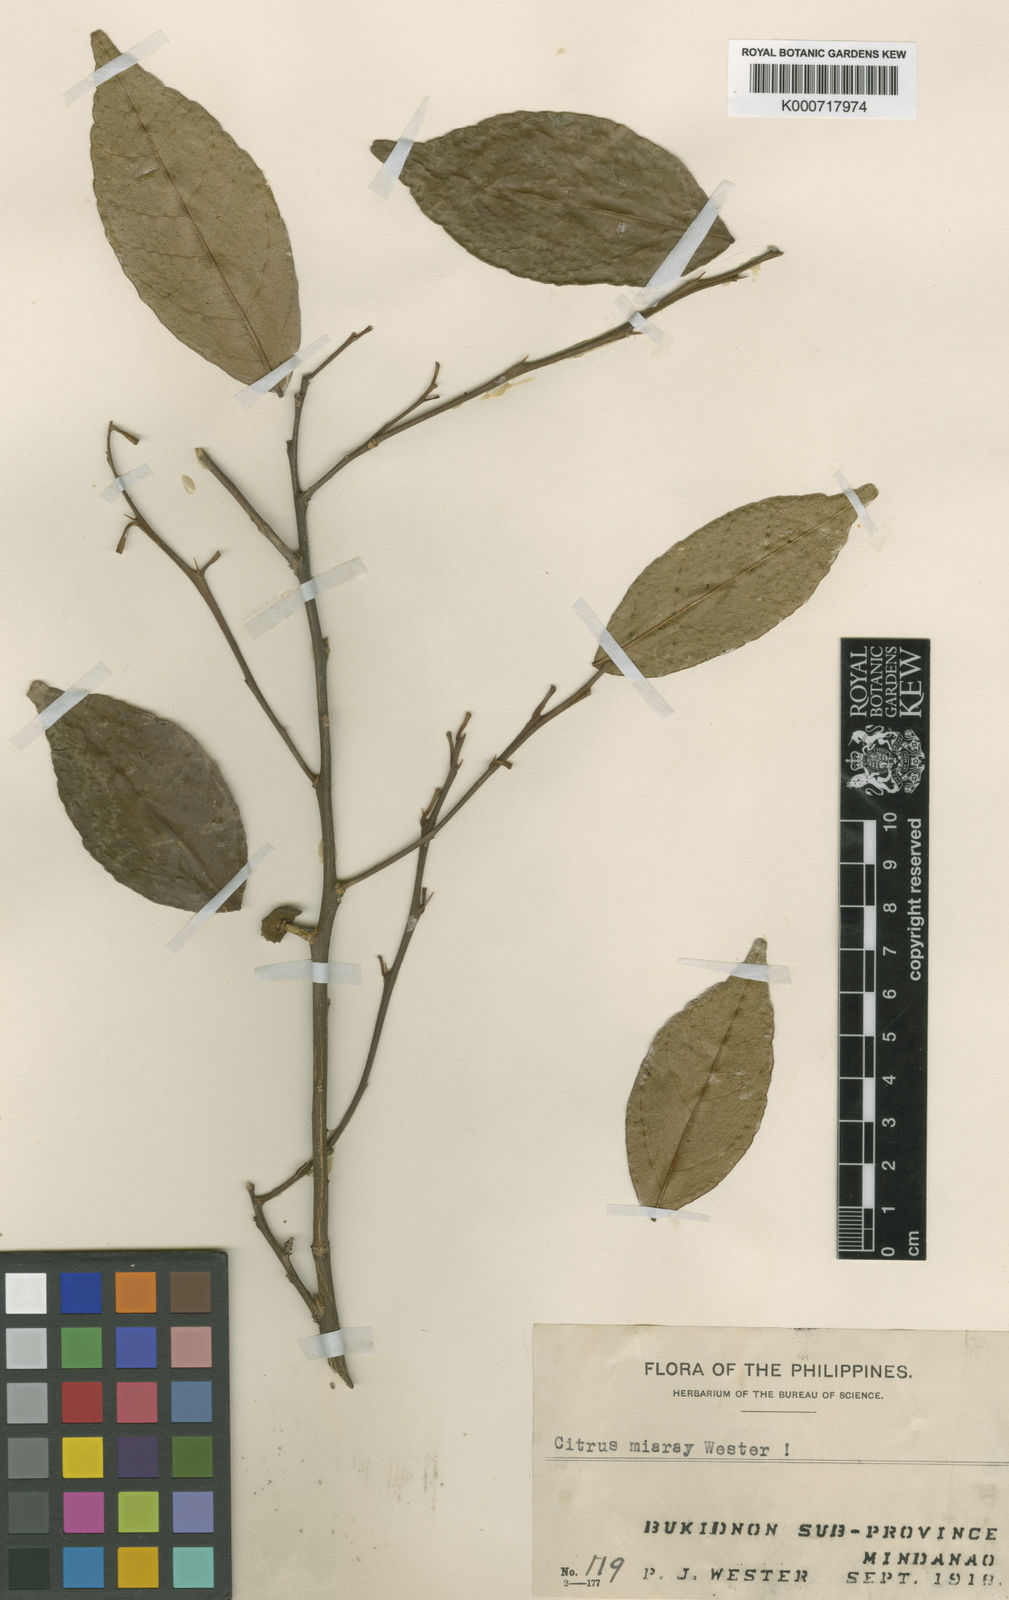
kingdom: Plantae
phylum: Tracheophyta
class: Magnoliopsida
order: Sapindales
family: Rutaceae
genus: Citrus
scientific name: Citrus miaray
